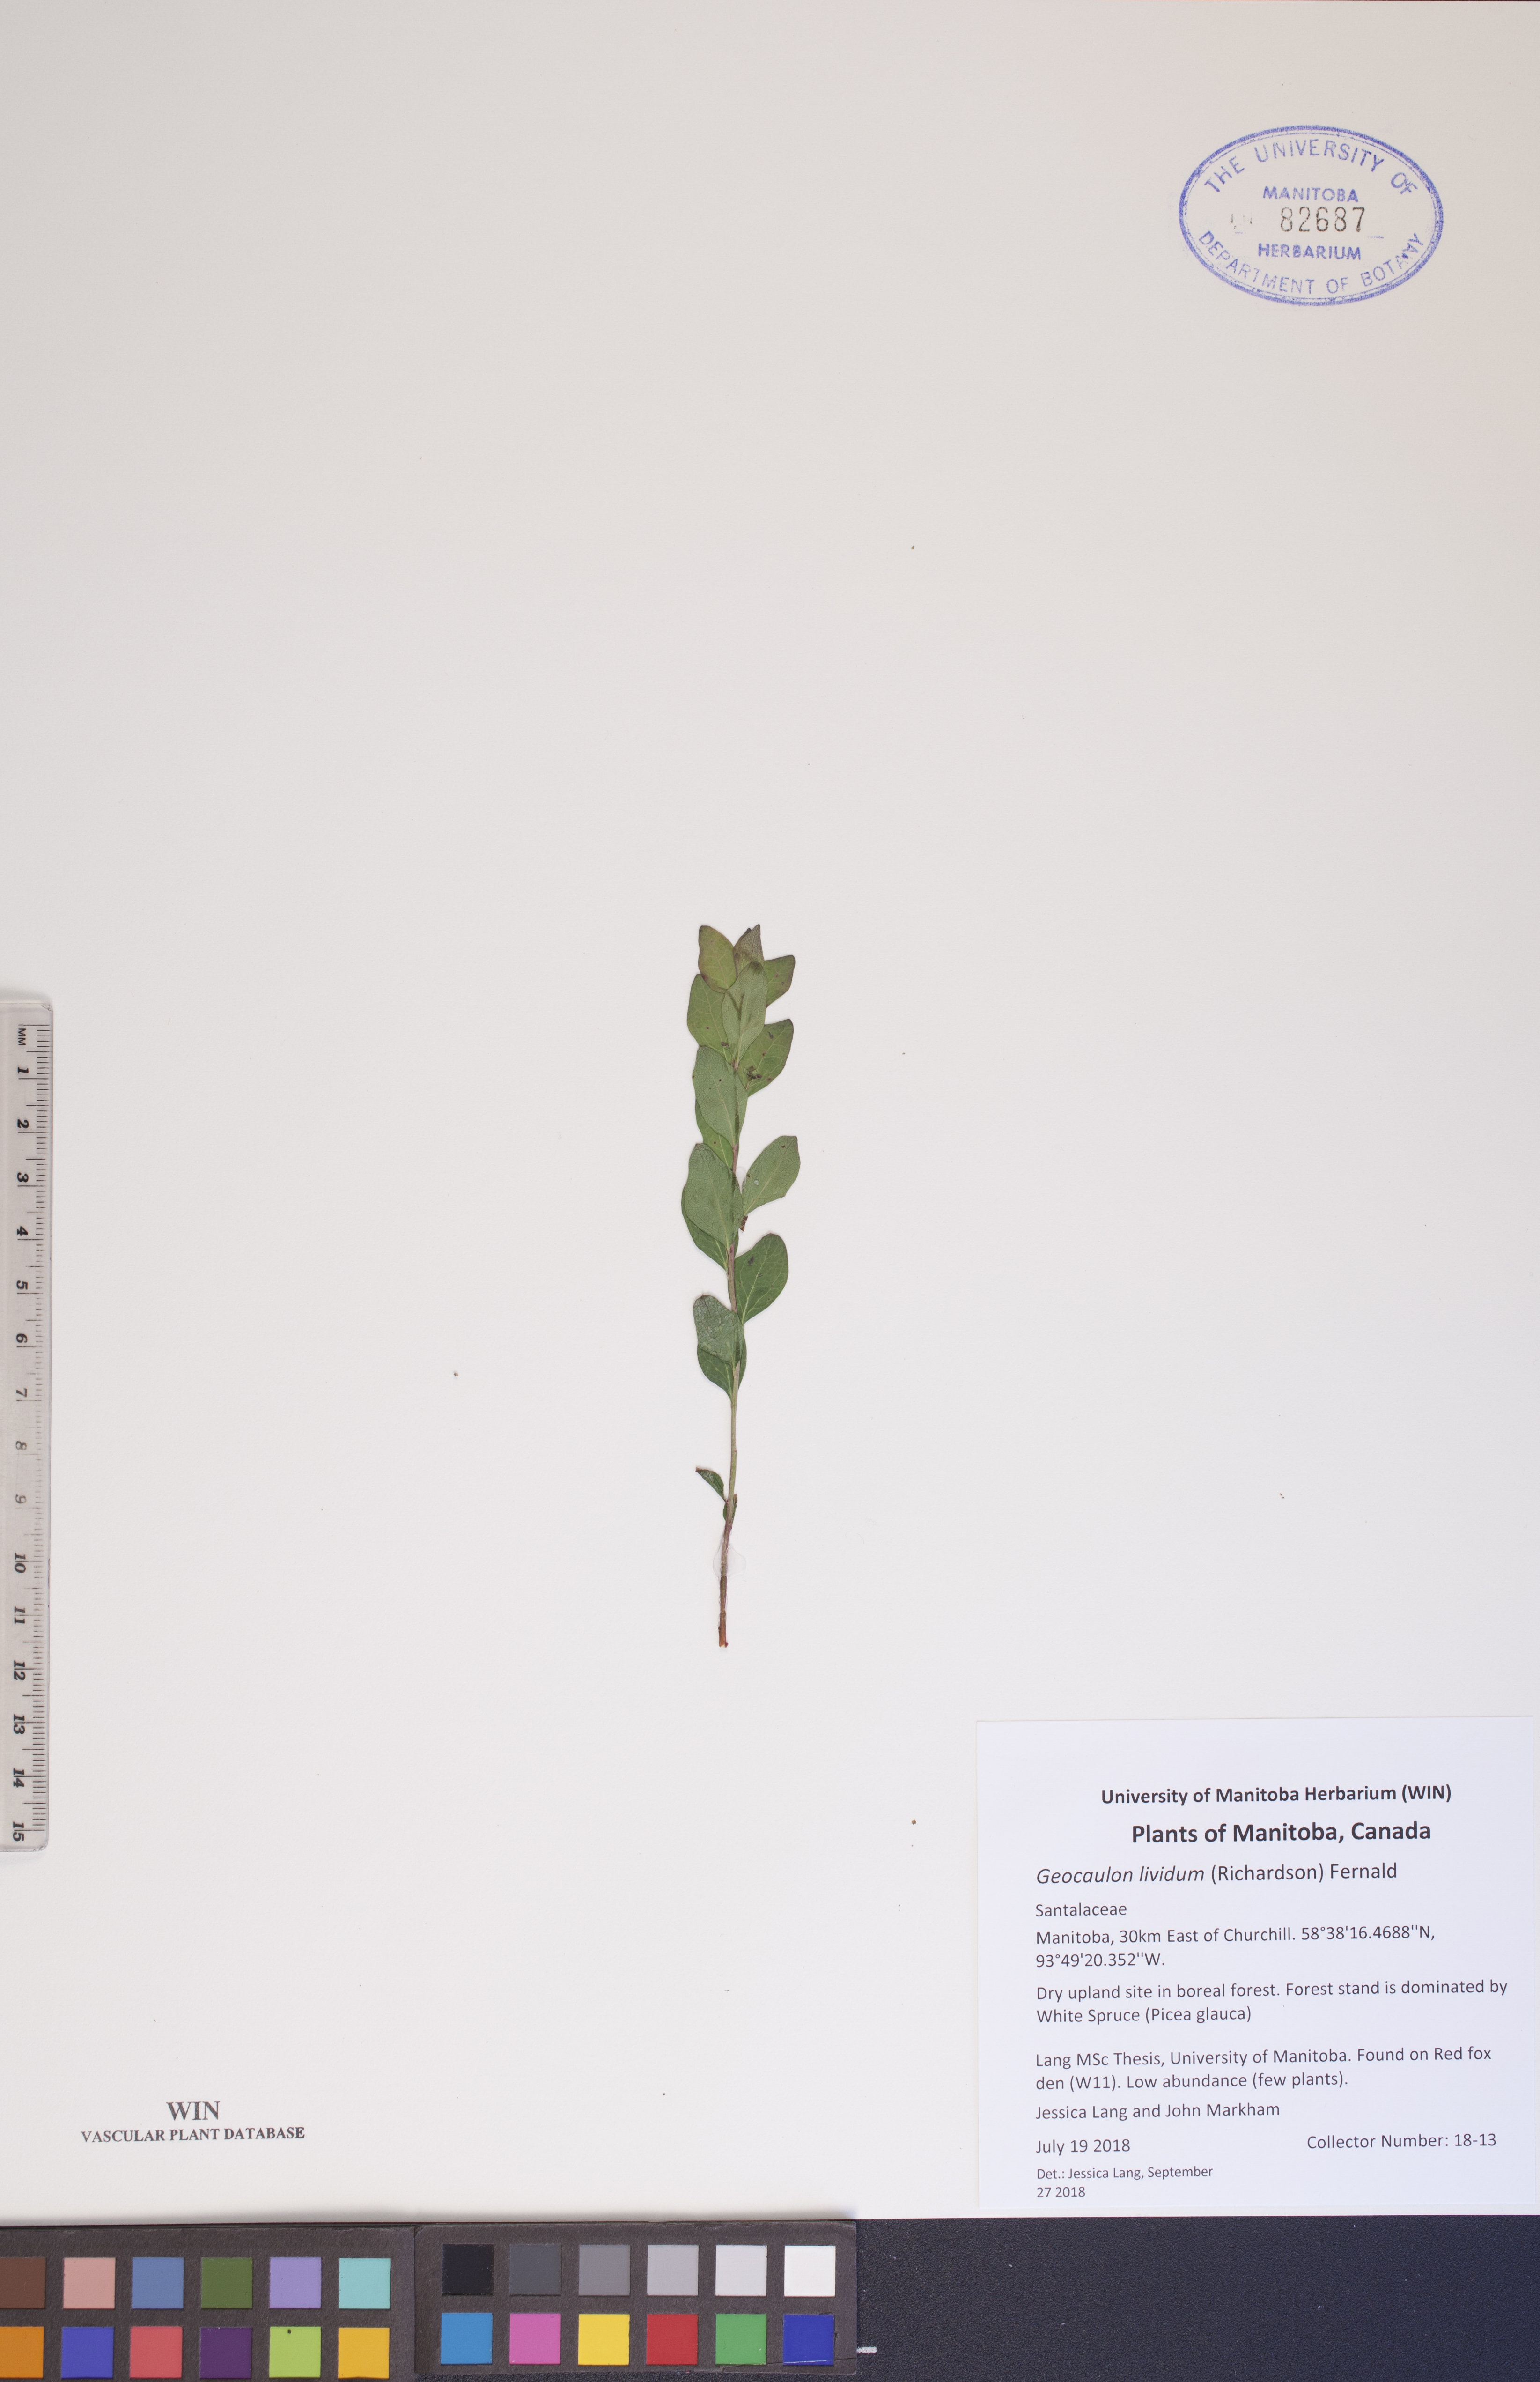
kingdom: Plantae
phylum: Tracheophyta
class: Magnoliopsida
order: Santalales
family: Comandraceae
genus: Geocaulon
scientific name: Geocaulon lividum
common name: Earthberry
